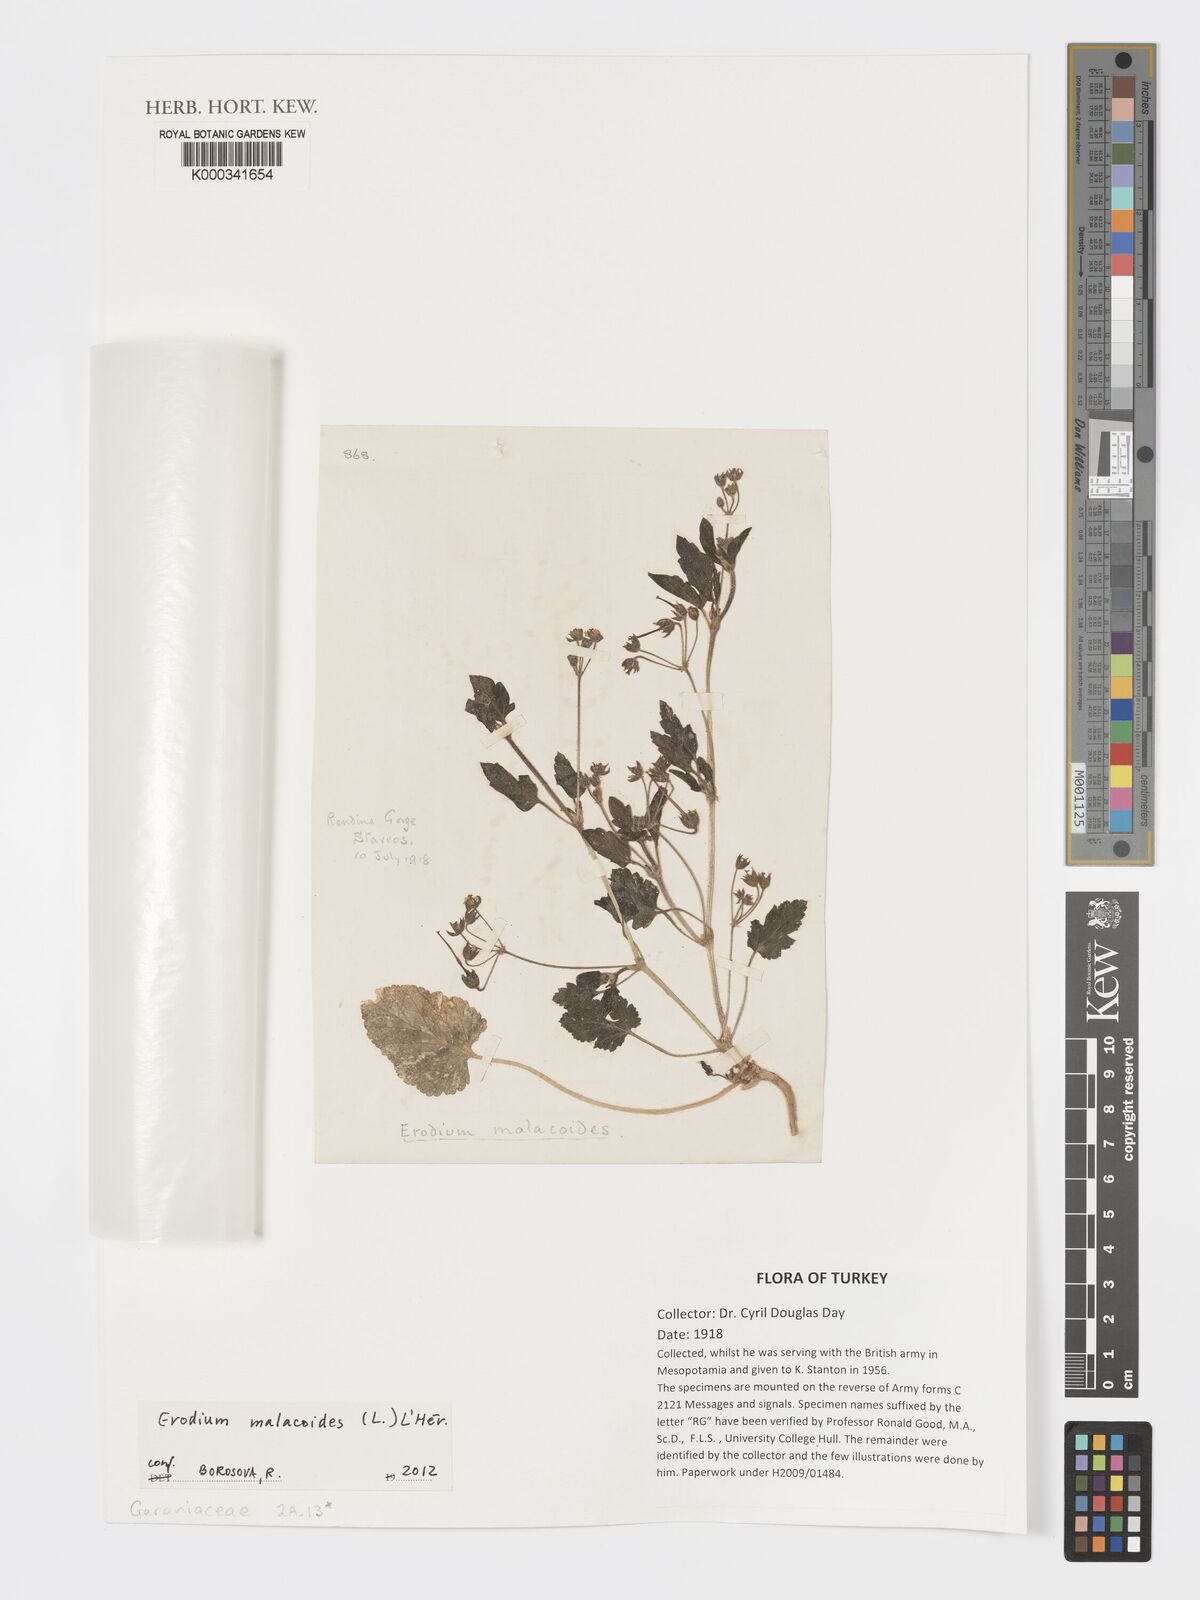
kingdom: Plantae
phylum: Tracheophyta
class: Magnoliopsida
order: Geraniales
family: Geraniaceae
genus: Erodium
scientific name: Erodium
